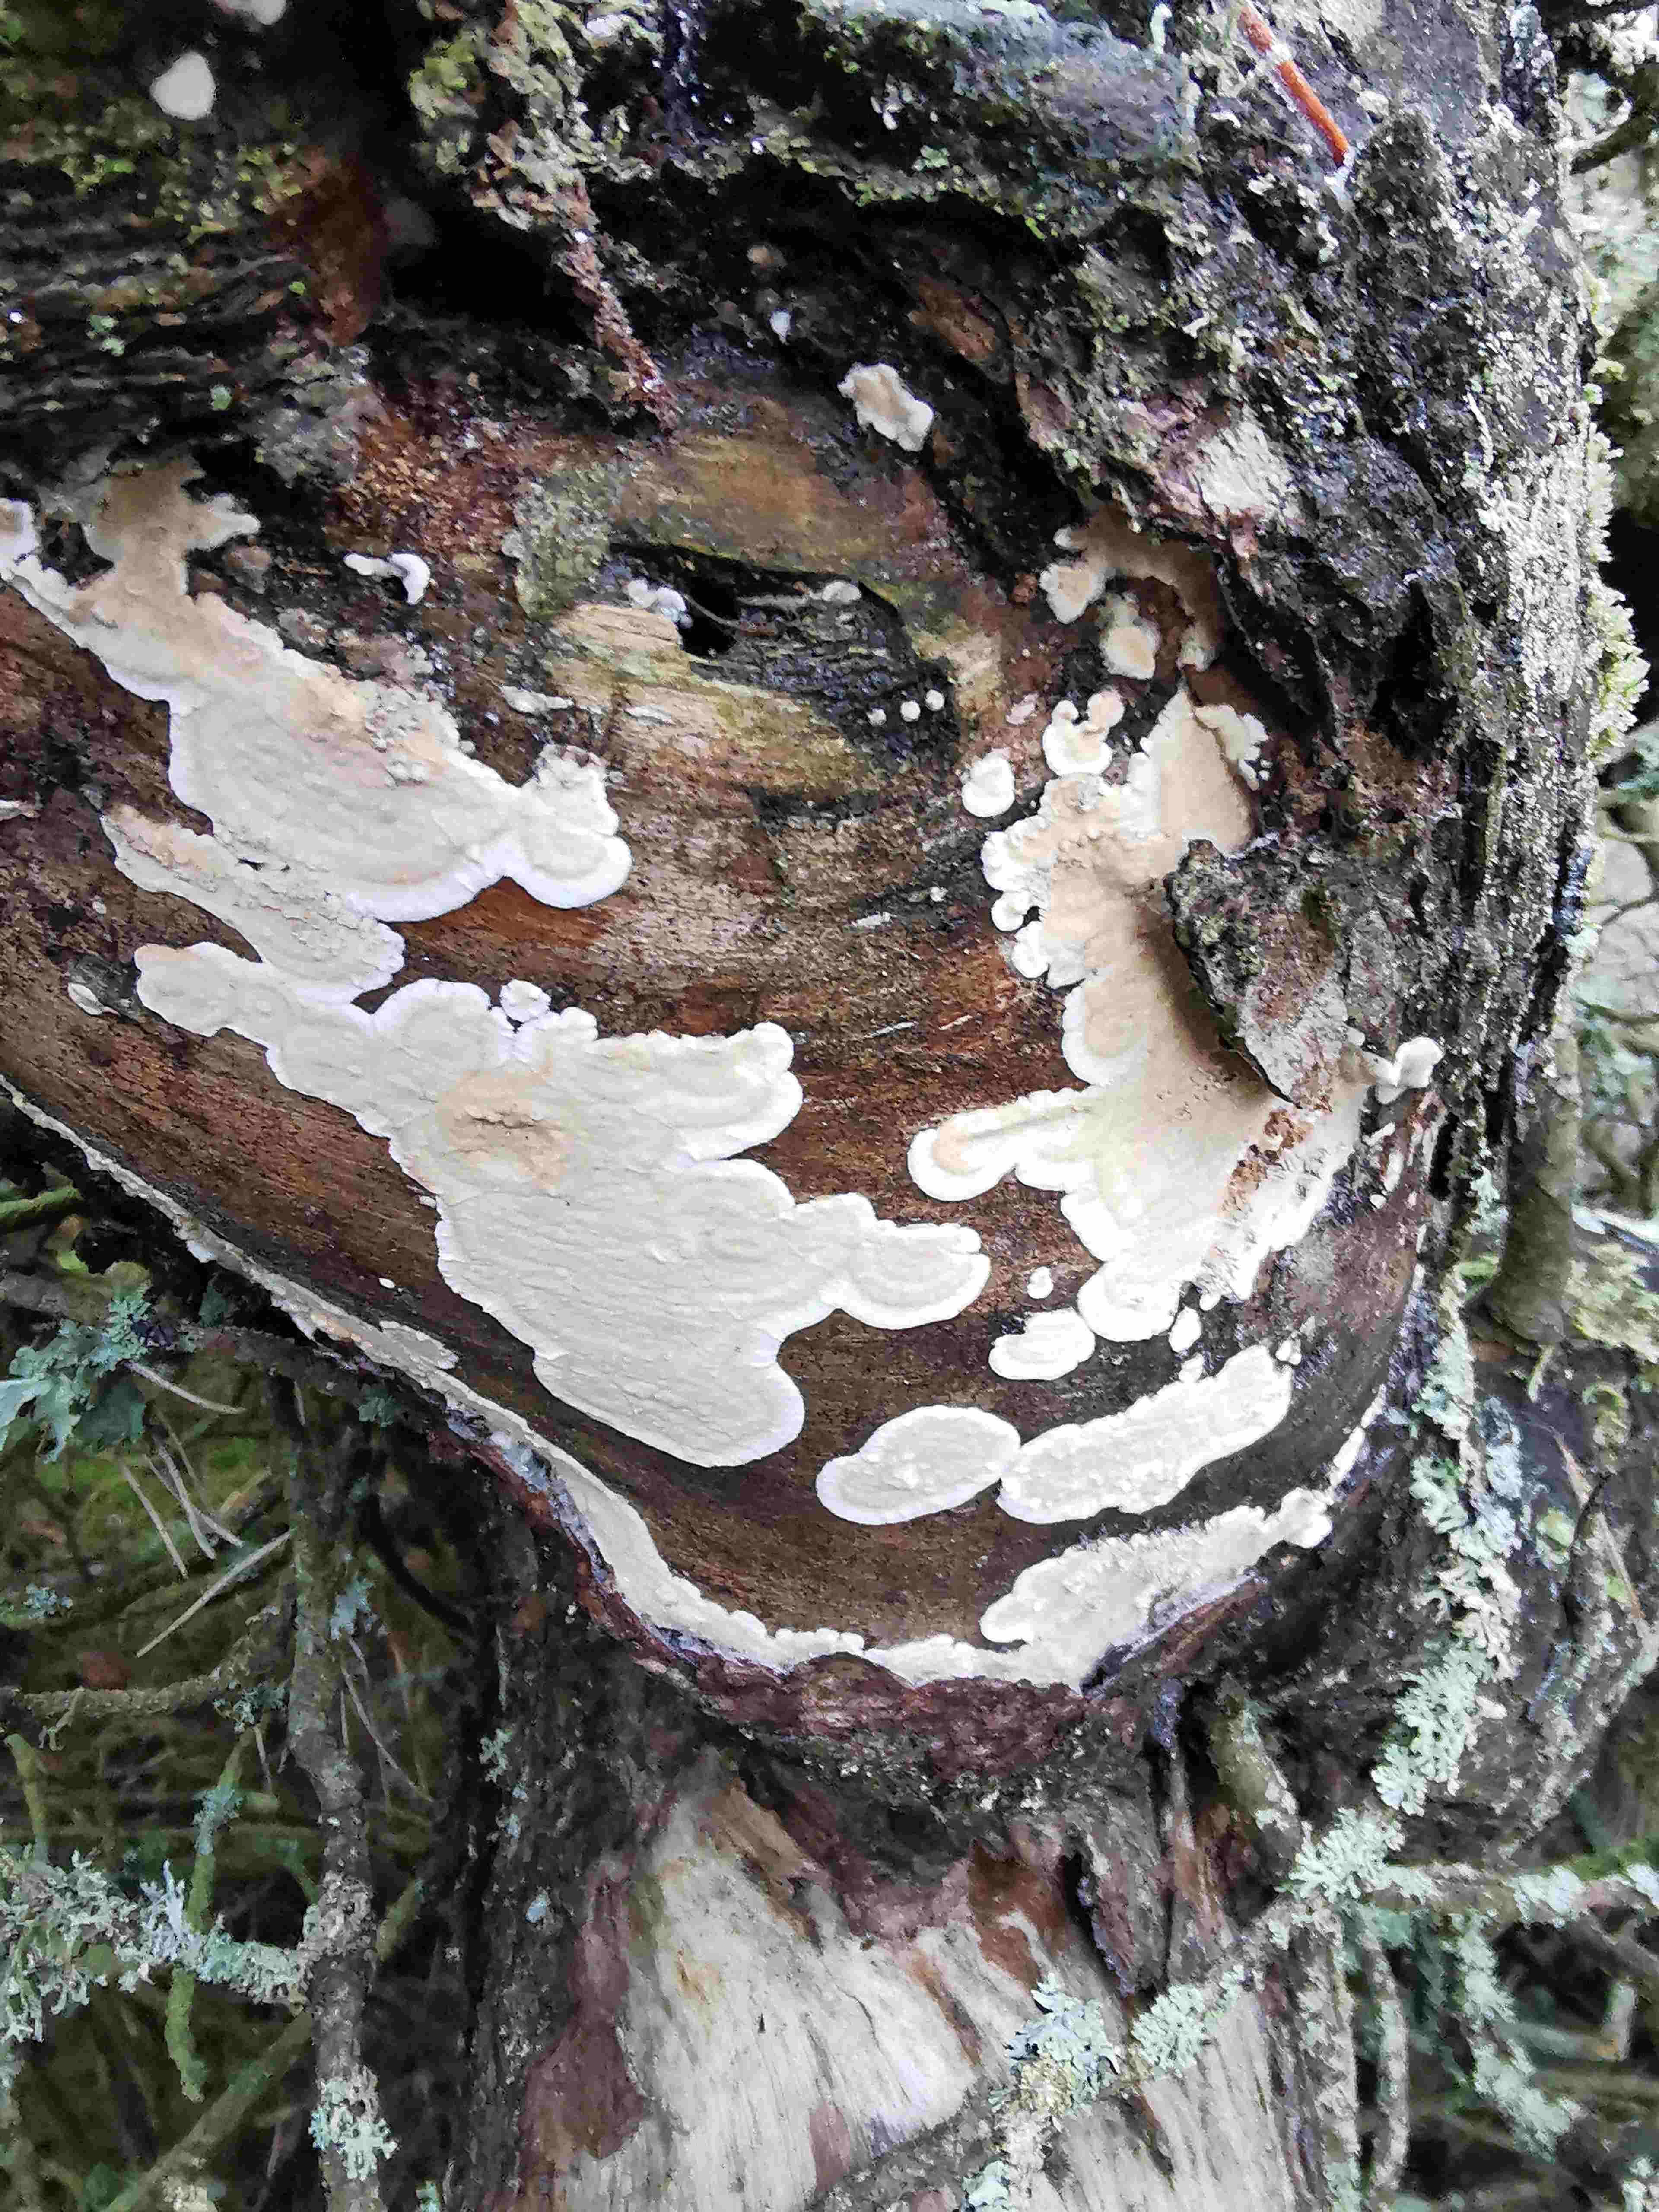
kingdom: Fungi
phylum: Basidiomycota
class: Agaricomycetes
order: Polyporales
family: Dacryobolaceae
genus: Dacryobolus
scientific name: Dacryobolus karstenii
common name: glat vulkanskorpe
